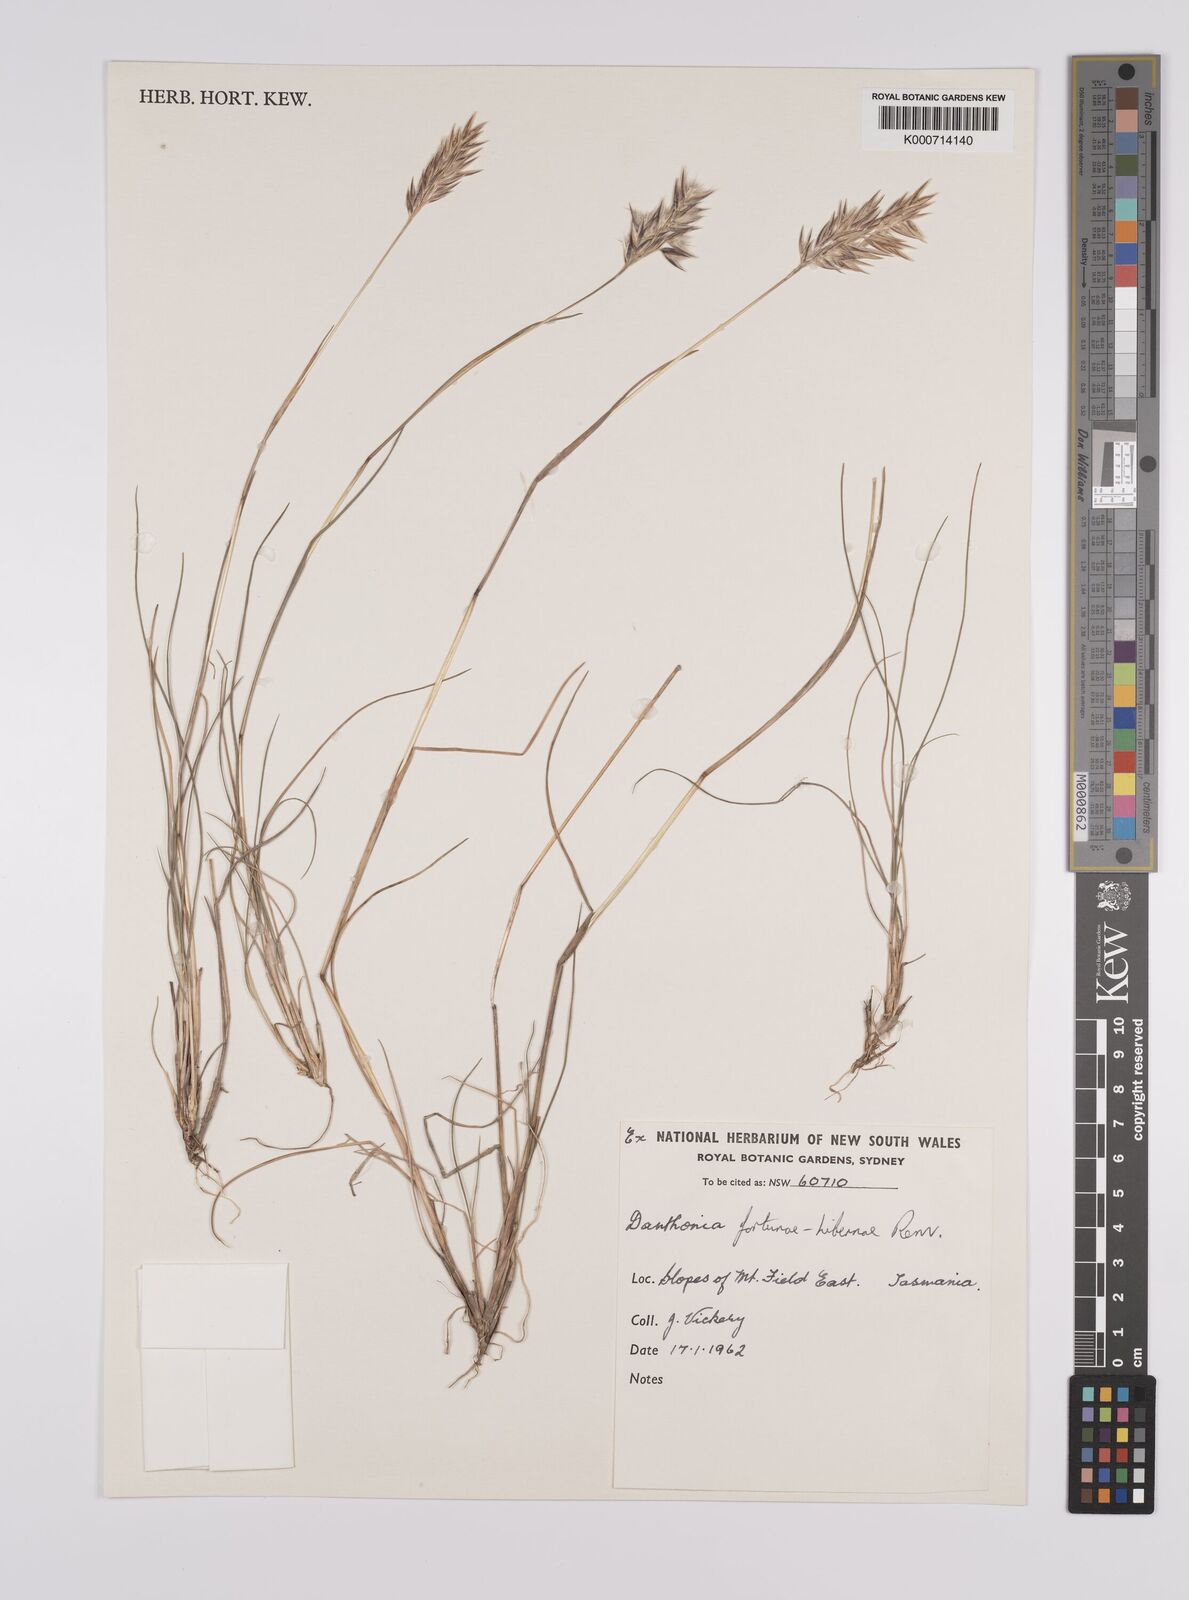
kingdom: Plantae
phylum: Tracheophyta
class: Liliopsida
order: Poales
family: Poaceae
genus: Rytidosperma
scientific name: Rytidosperma fortunae-hibernae
